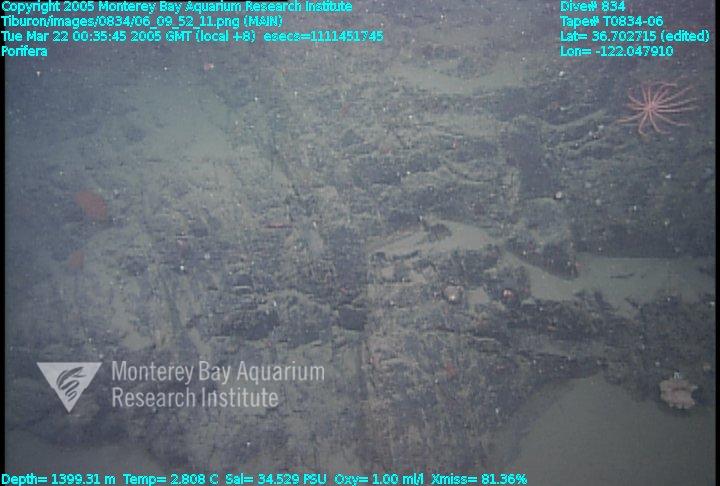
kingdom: Animalia
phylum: Porifera
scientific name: Porifera
